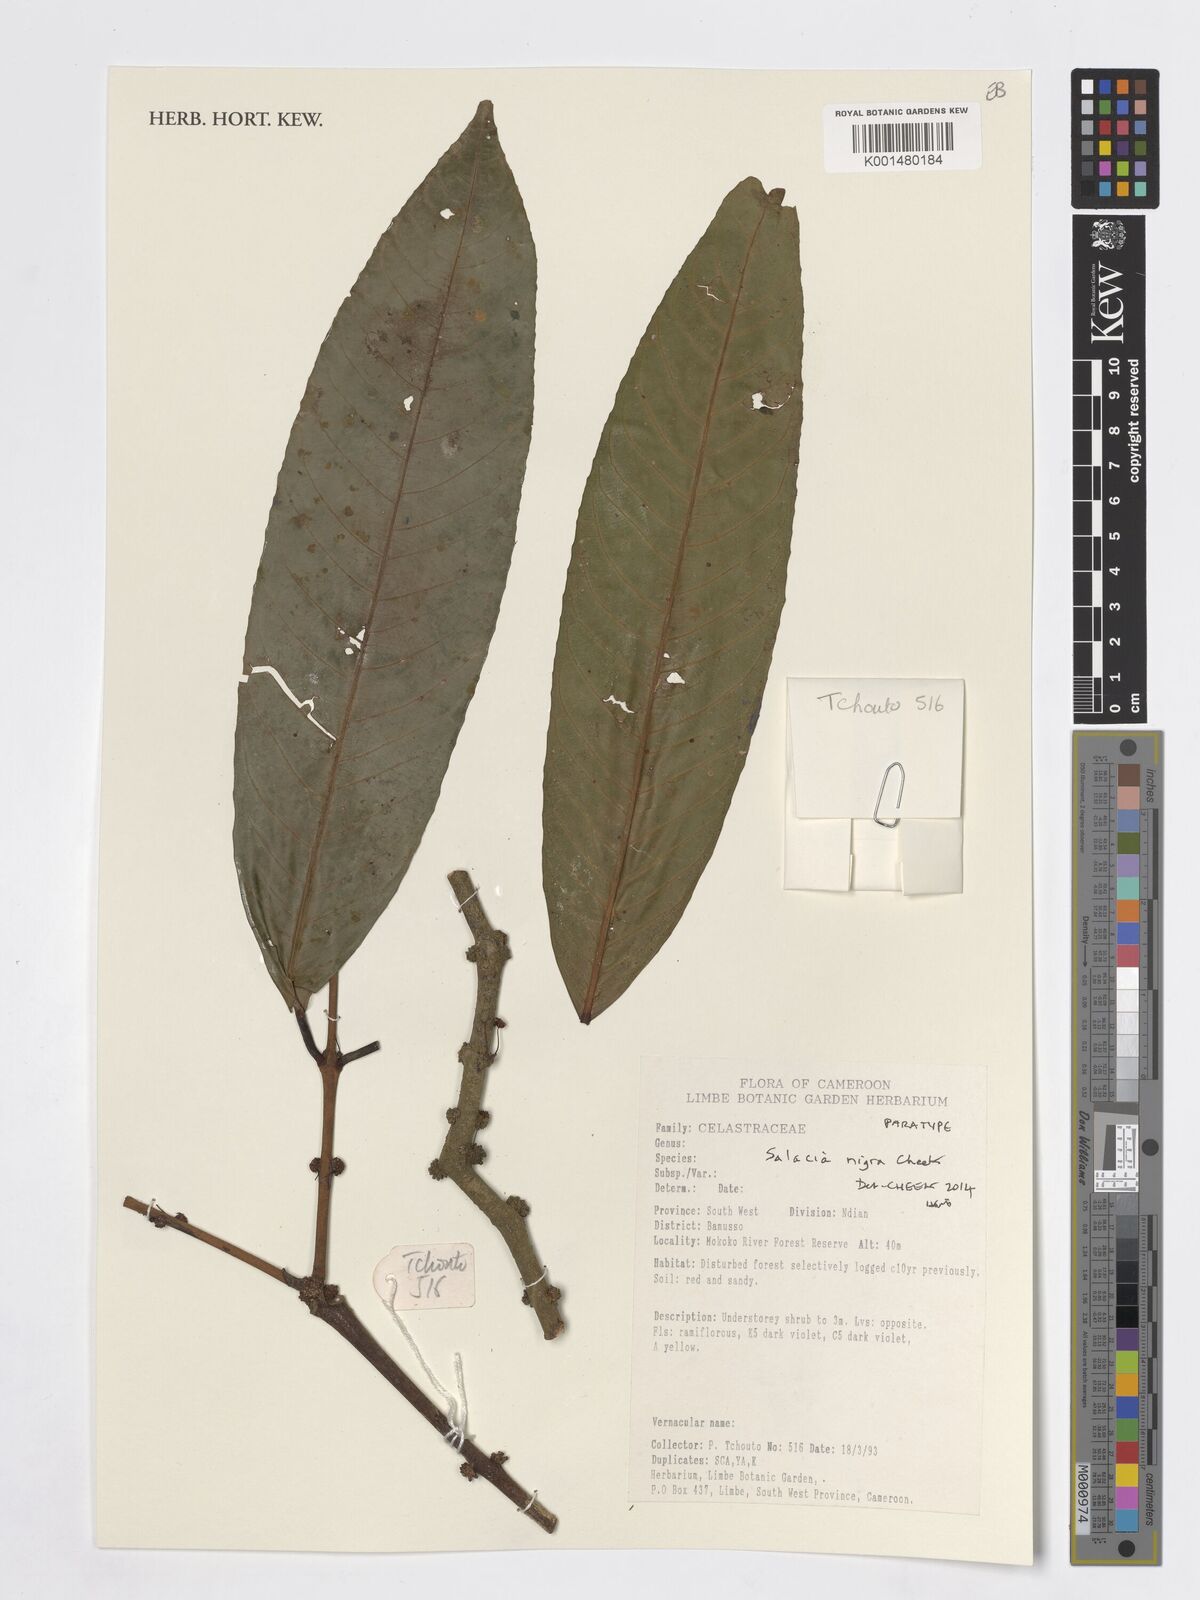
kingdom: Plantae
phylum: Tracheophyta
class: Magnoliopsida
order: Celastrales
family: Celastraceae
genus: Salacia
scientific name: Salacia nigra
